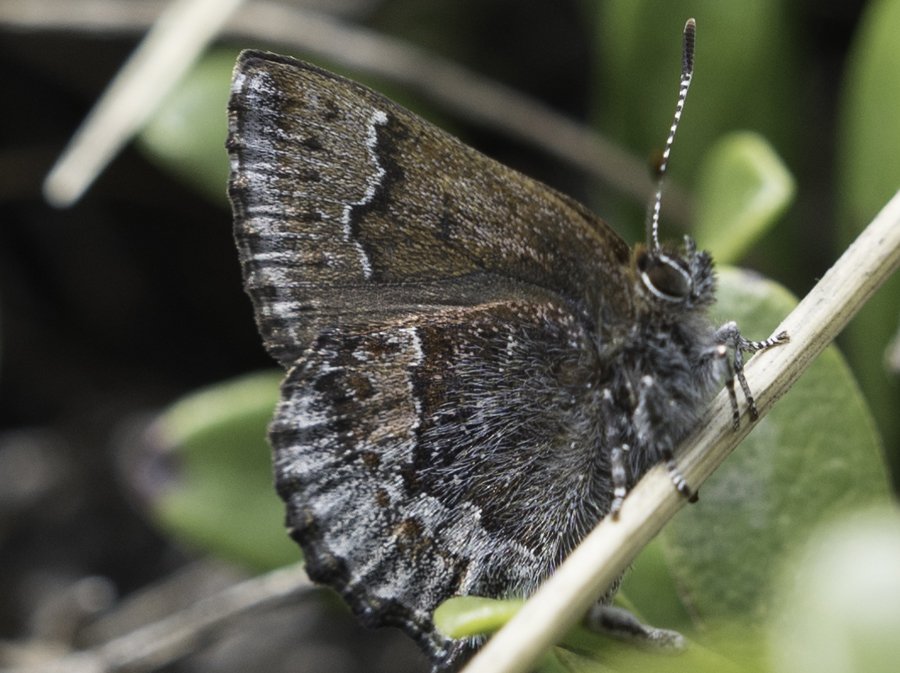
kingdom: Animalia
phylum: Arthropoda
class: Insecta
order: Lepidoptera
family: Lycaenidae
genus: Callophrys
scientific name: Callophrys polios
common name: Hoary Elfin
